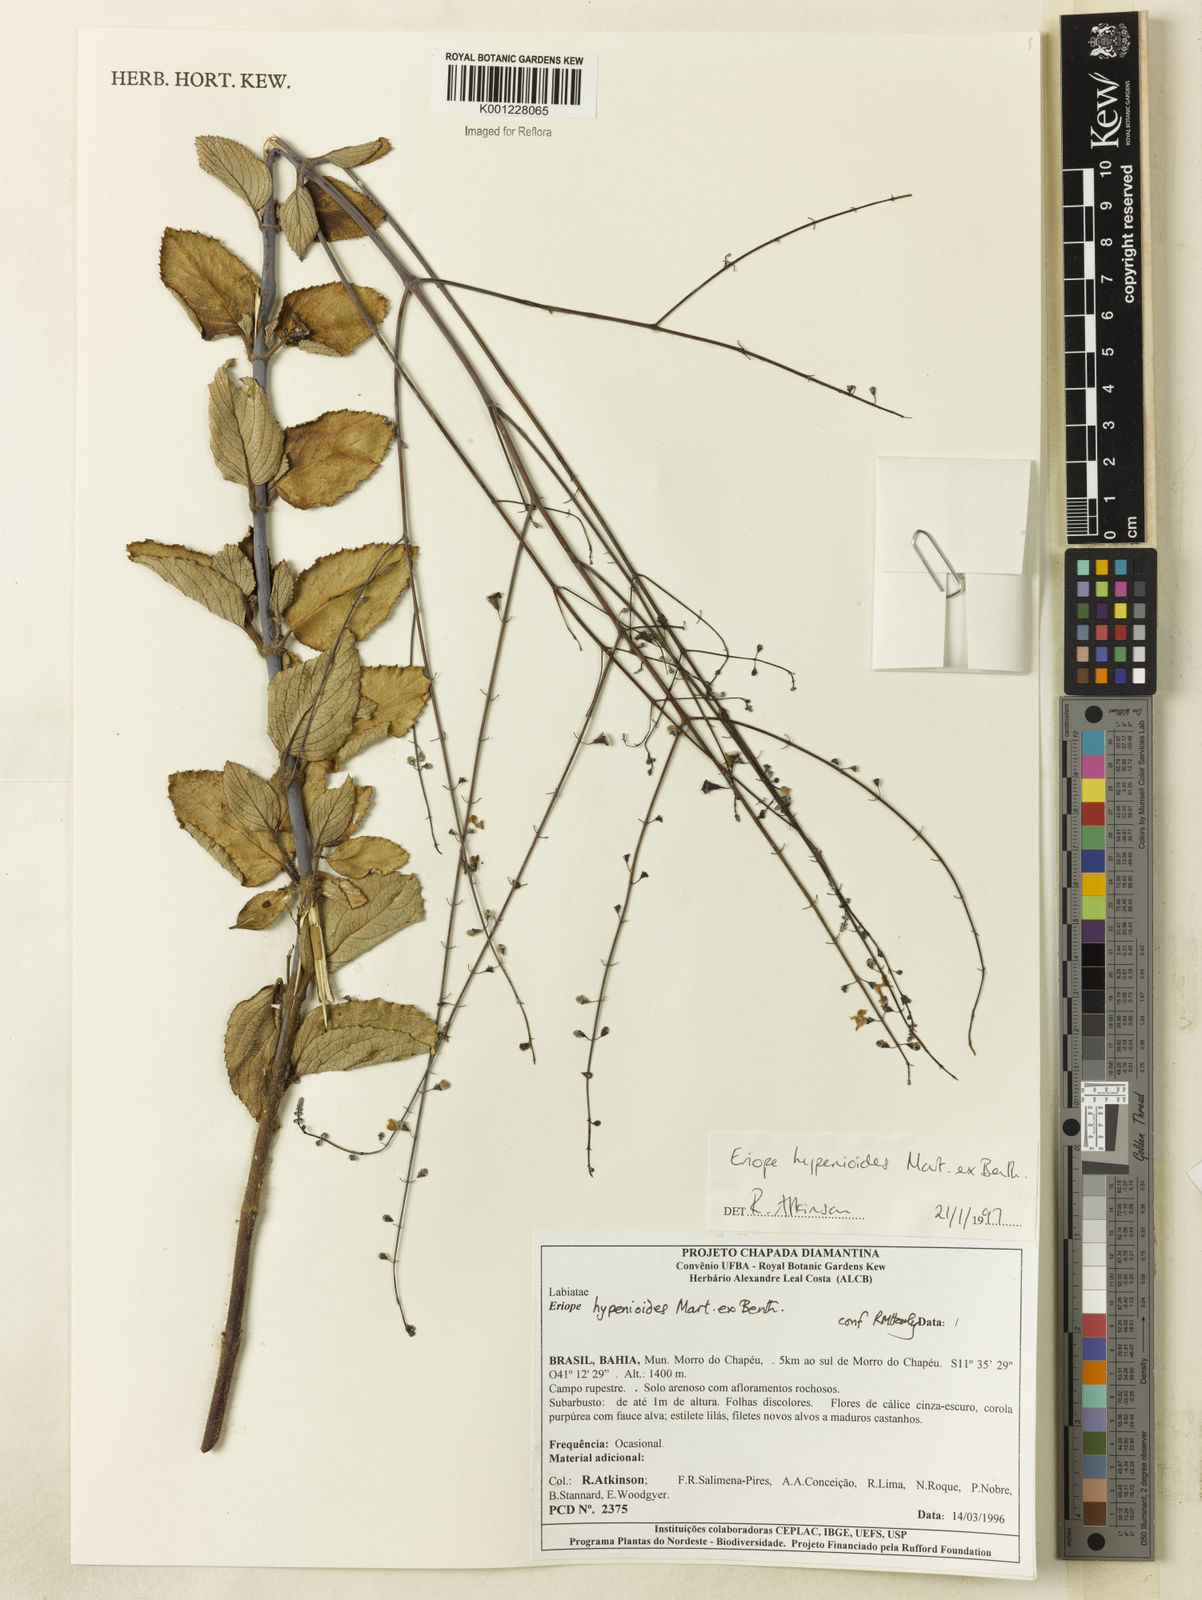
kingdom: Plantae
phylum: Tracheophyta
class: Magnoliopsida
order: Lamiales
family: Lamiaceae
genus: Eriope
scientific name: Eriope hypenioides
